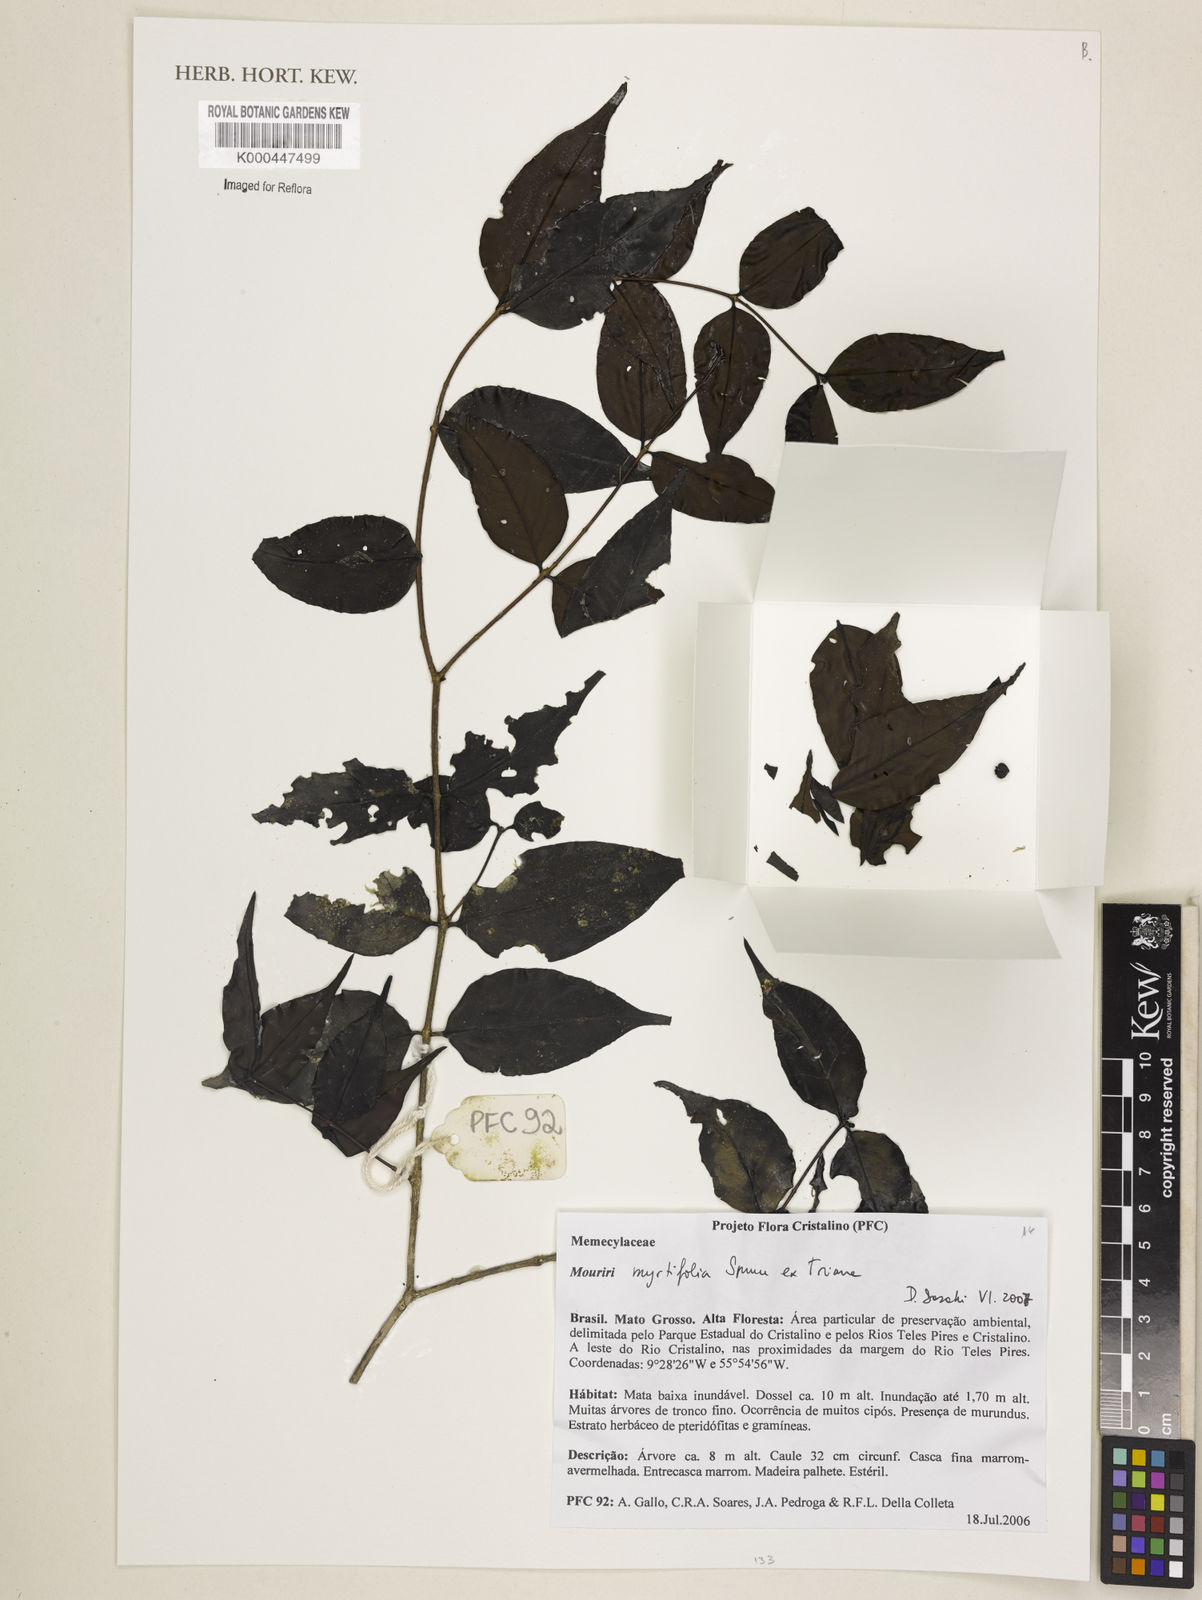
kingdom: Plantae
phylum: Tracheophyta
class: Magnoliopsida
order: Myrtales
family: Melastomataceae
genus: Mouriri
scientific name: Mouriri myrtifolia
